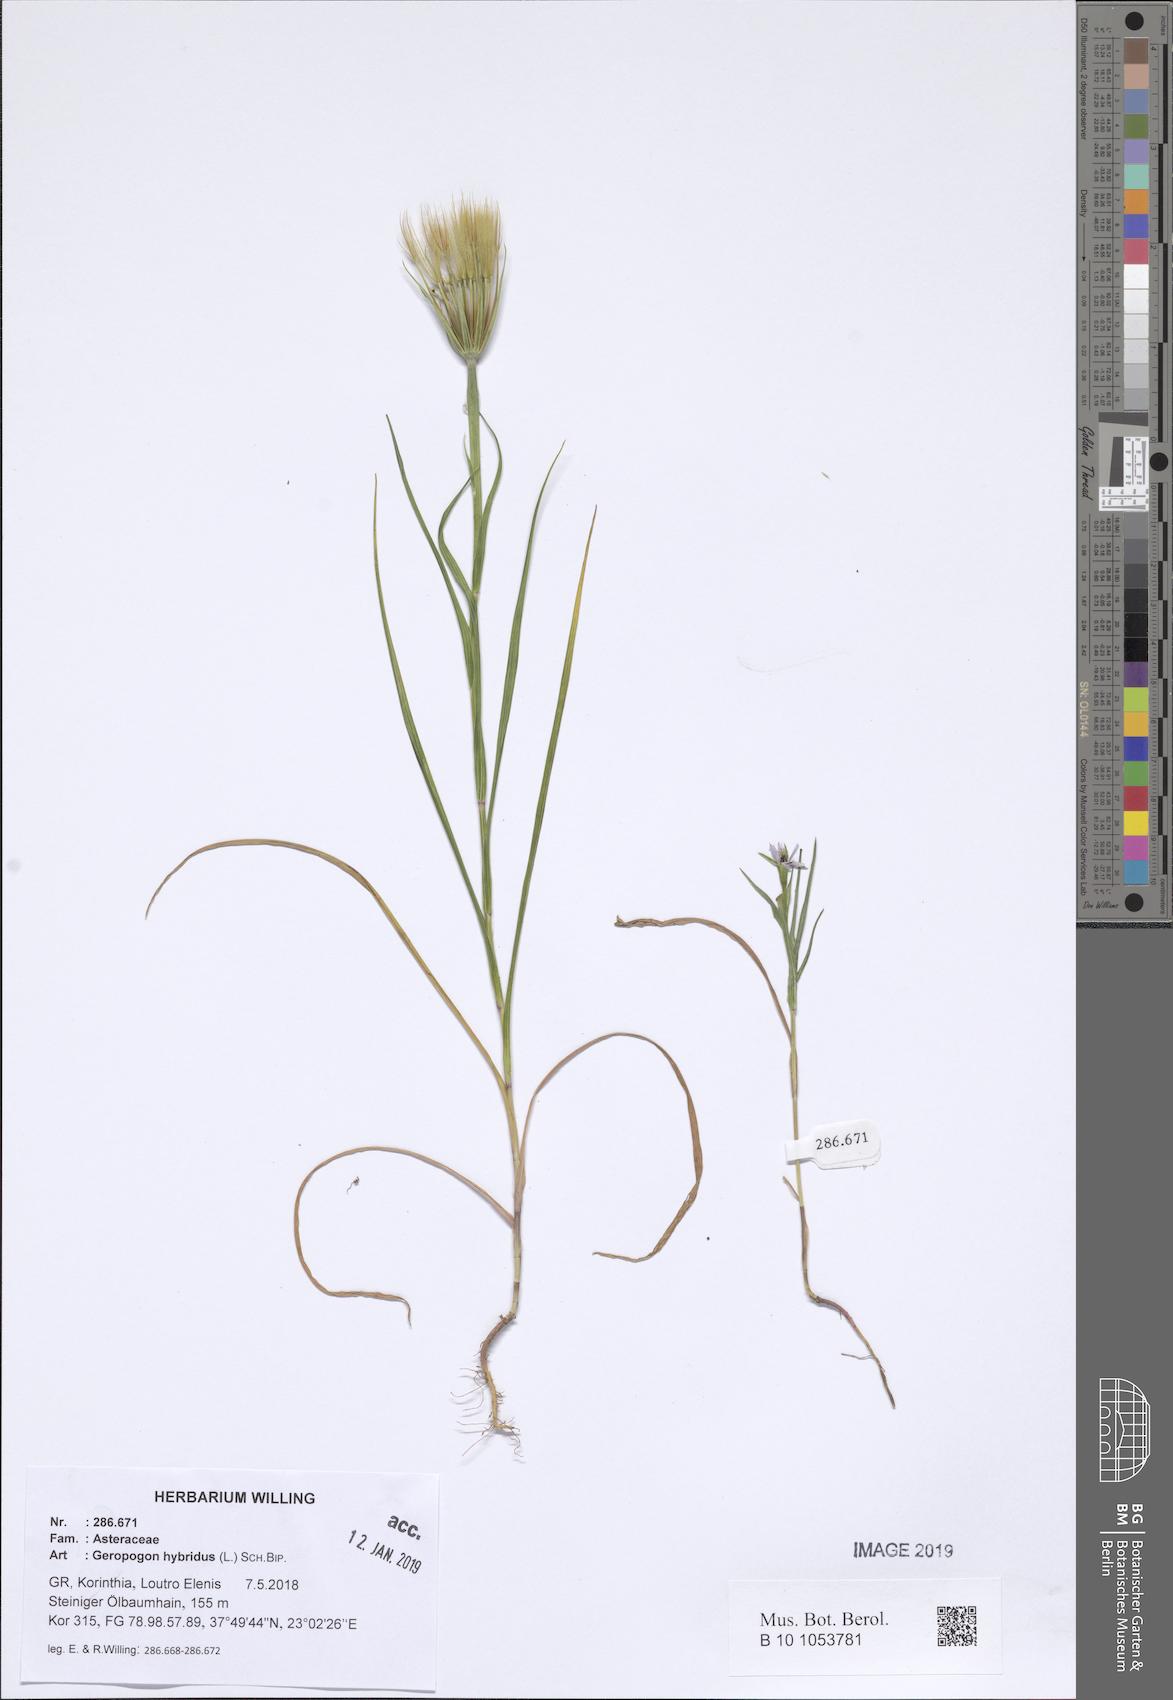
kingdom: Plantae
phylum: Tracheophyta
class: Magnoliopsida
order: Asterales
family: Asteraceae
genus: Geropogon
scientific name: Geropogon hybridus
